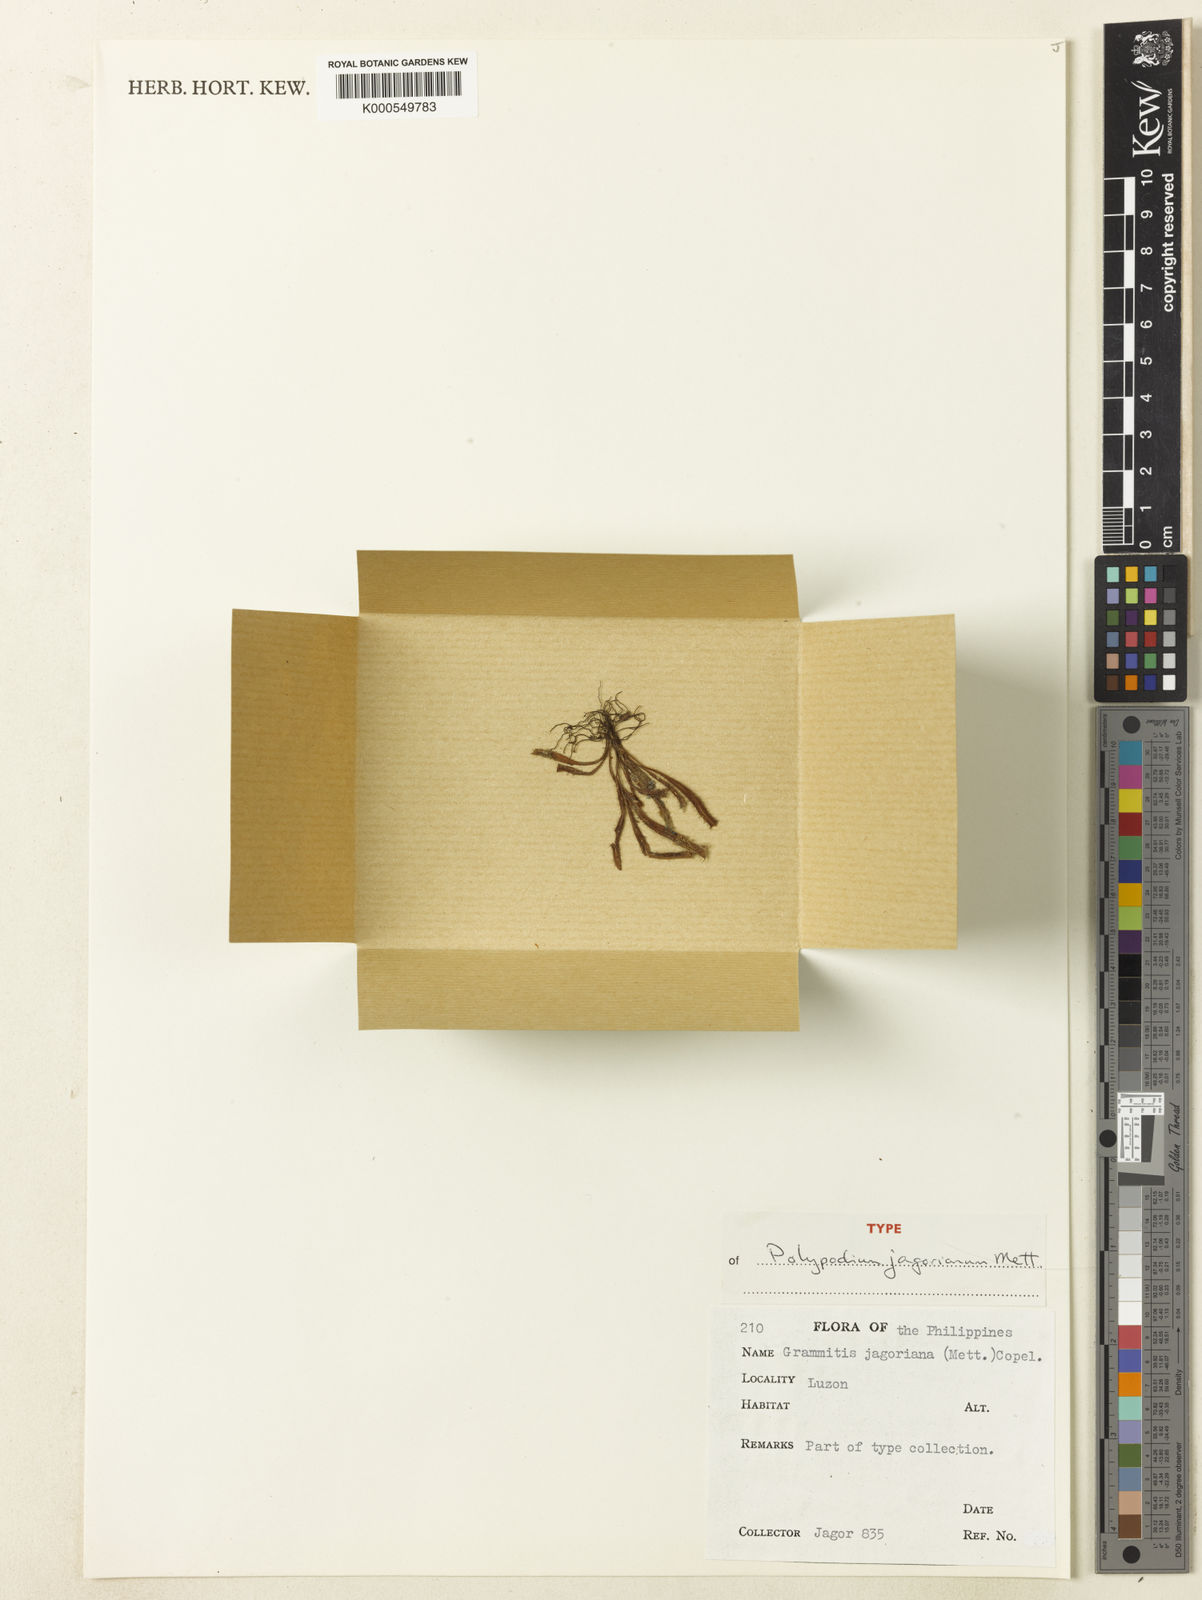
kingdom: Plantae
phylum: Tracheophyta
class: Polypodiopsida
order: Polypodiales
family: Polypodiaceae
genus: Oreogrammitis
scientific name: Oreogrammitis jagoriana
